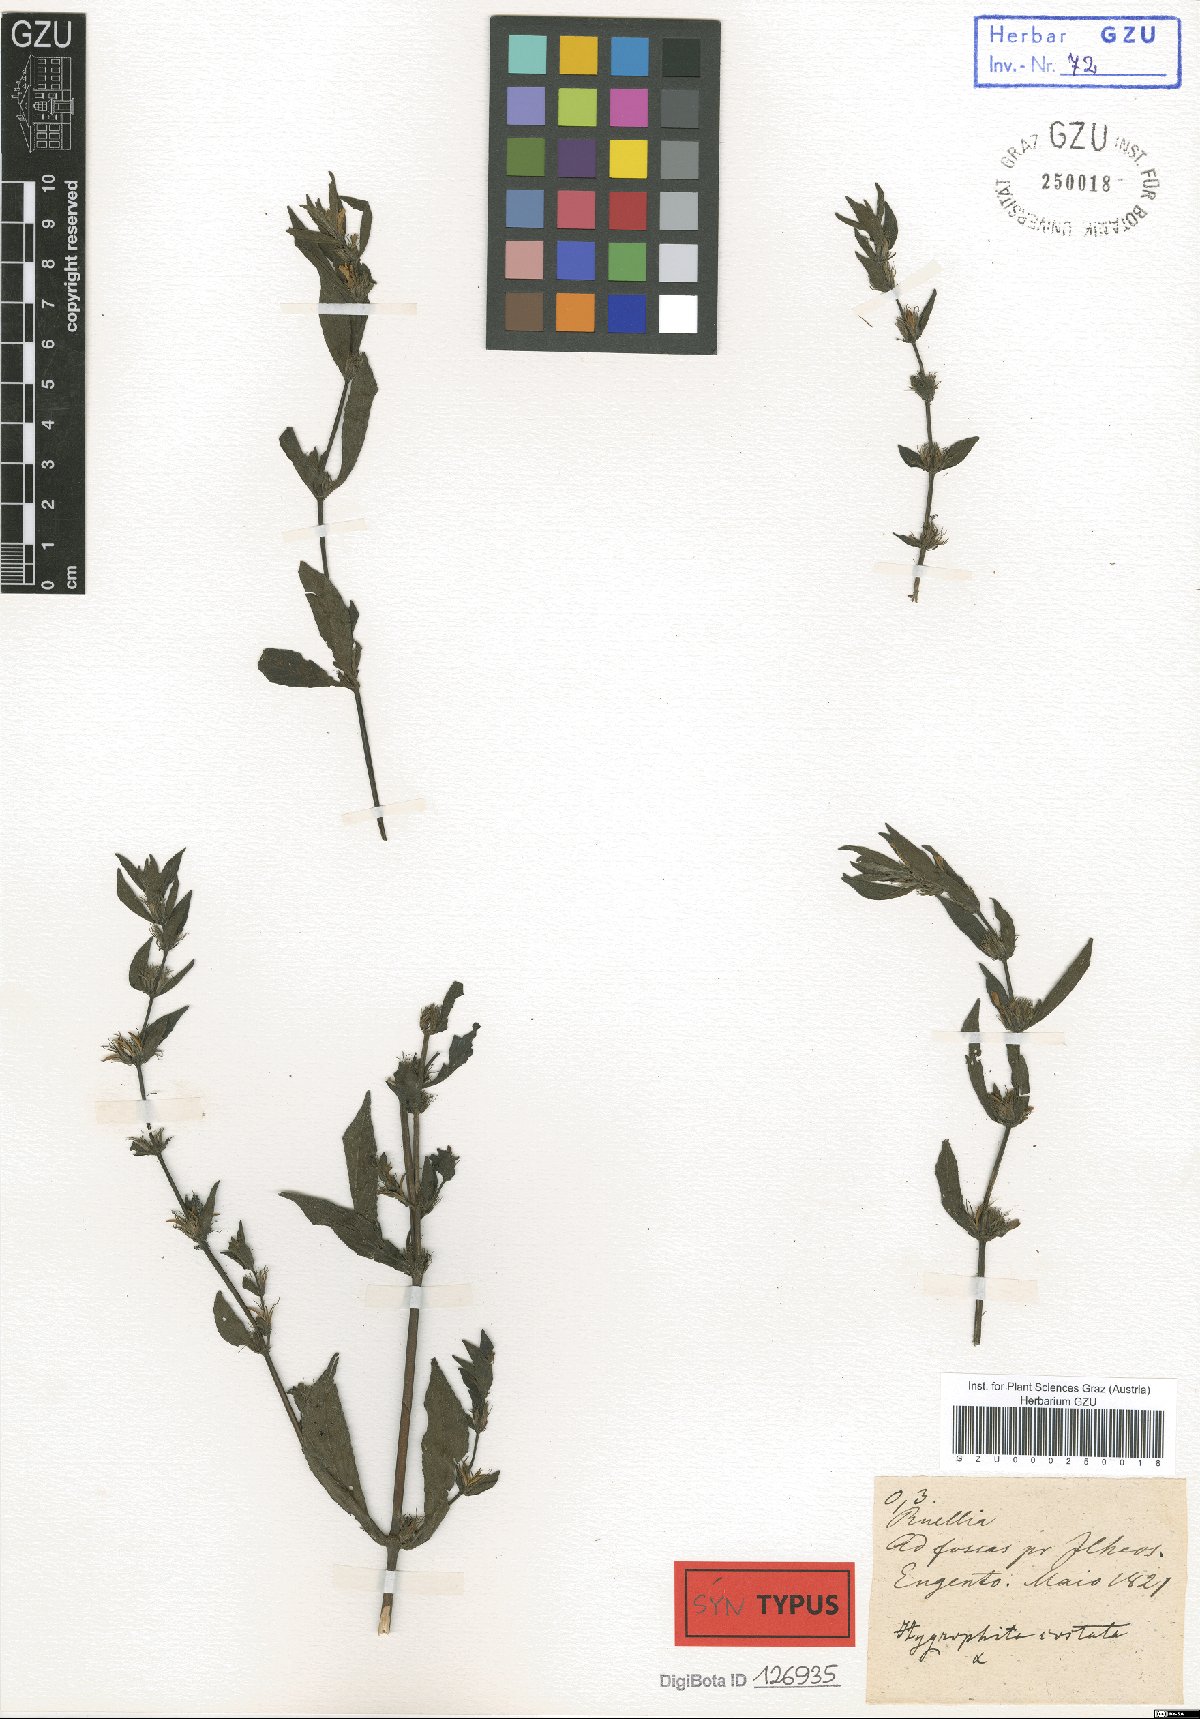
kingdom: Plantae
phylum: Tracheophyta
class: Magnoliopsida
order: Lamiales
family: Acanthaceae
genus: Hygrophila
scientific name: Hygrophila costata
